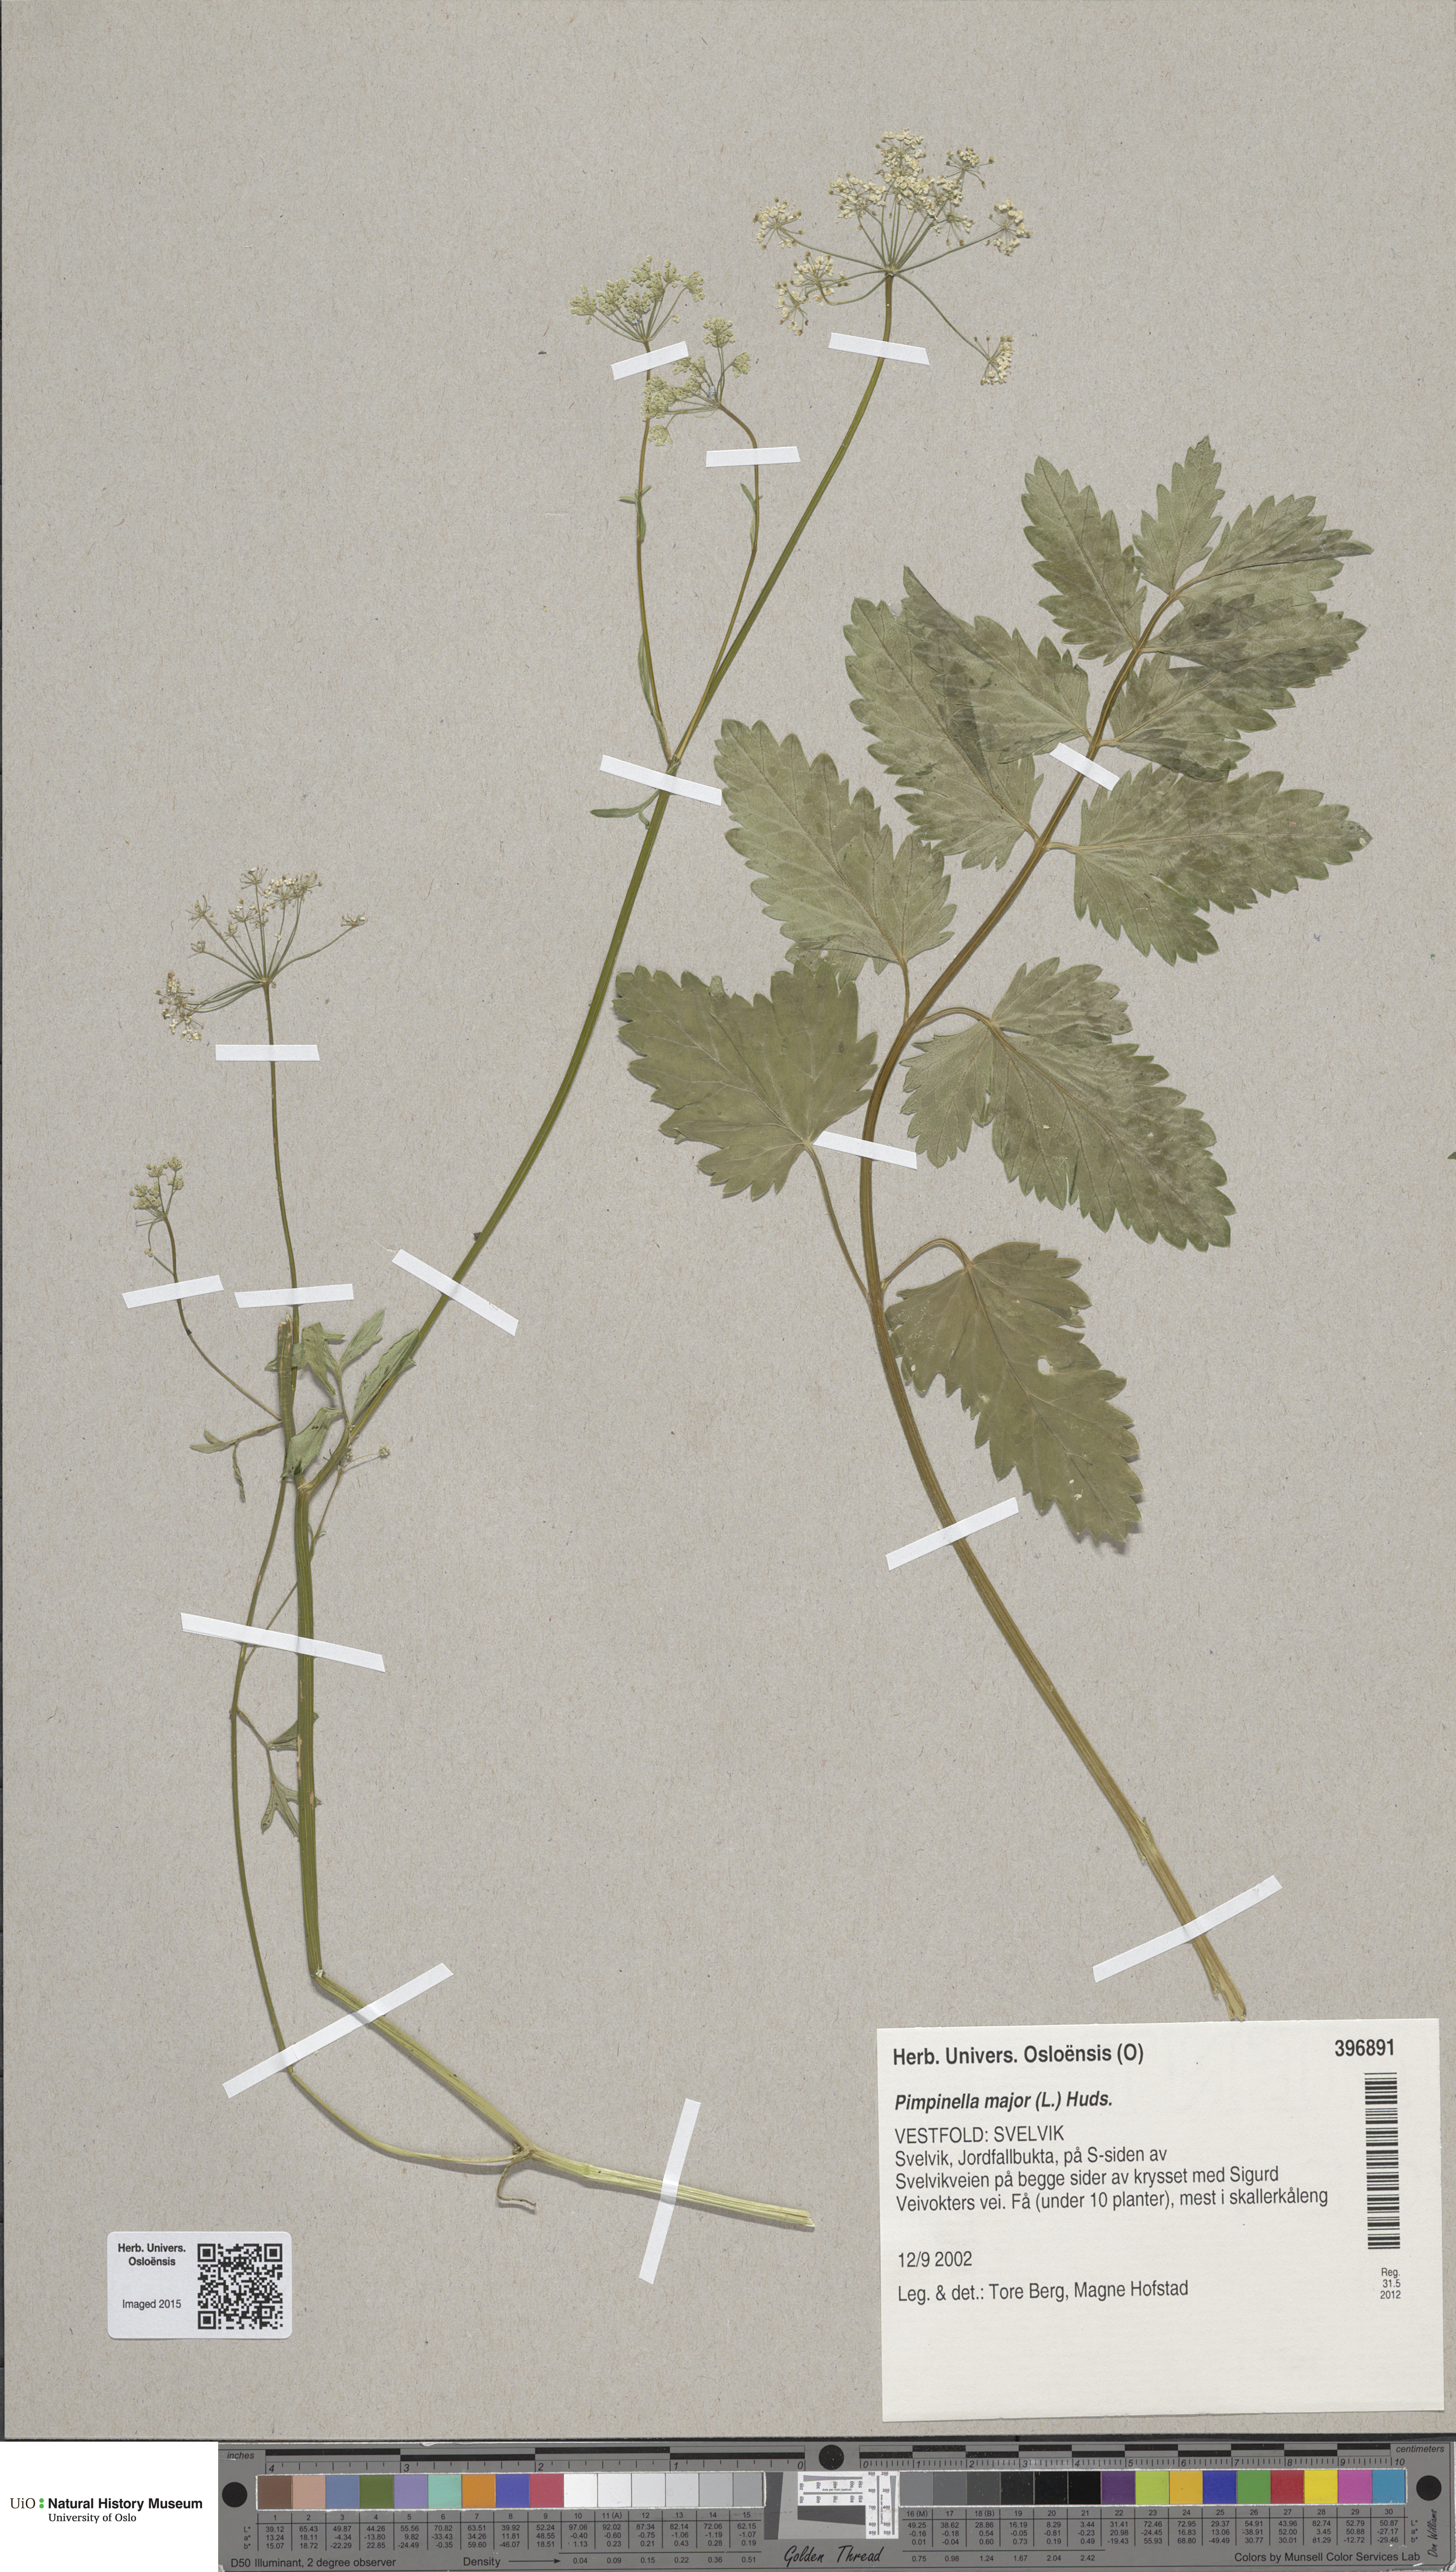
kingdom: Plantae
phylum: Tracheophyta
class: Magnoliopsida
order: Apiales
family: Apiaceae
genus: Pimpinella
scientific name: Pimpinella major
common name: Greater burnet-saxifrage
